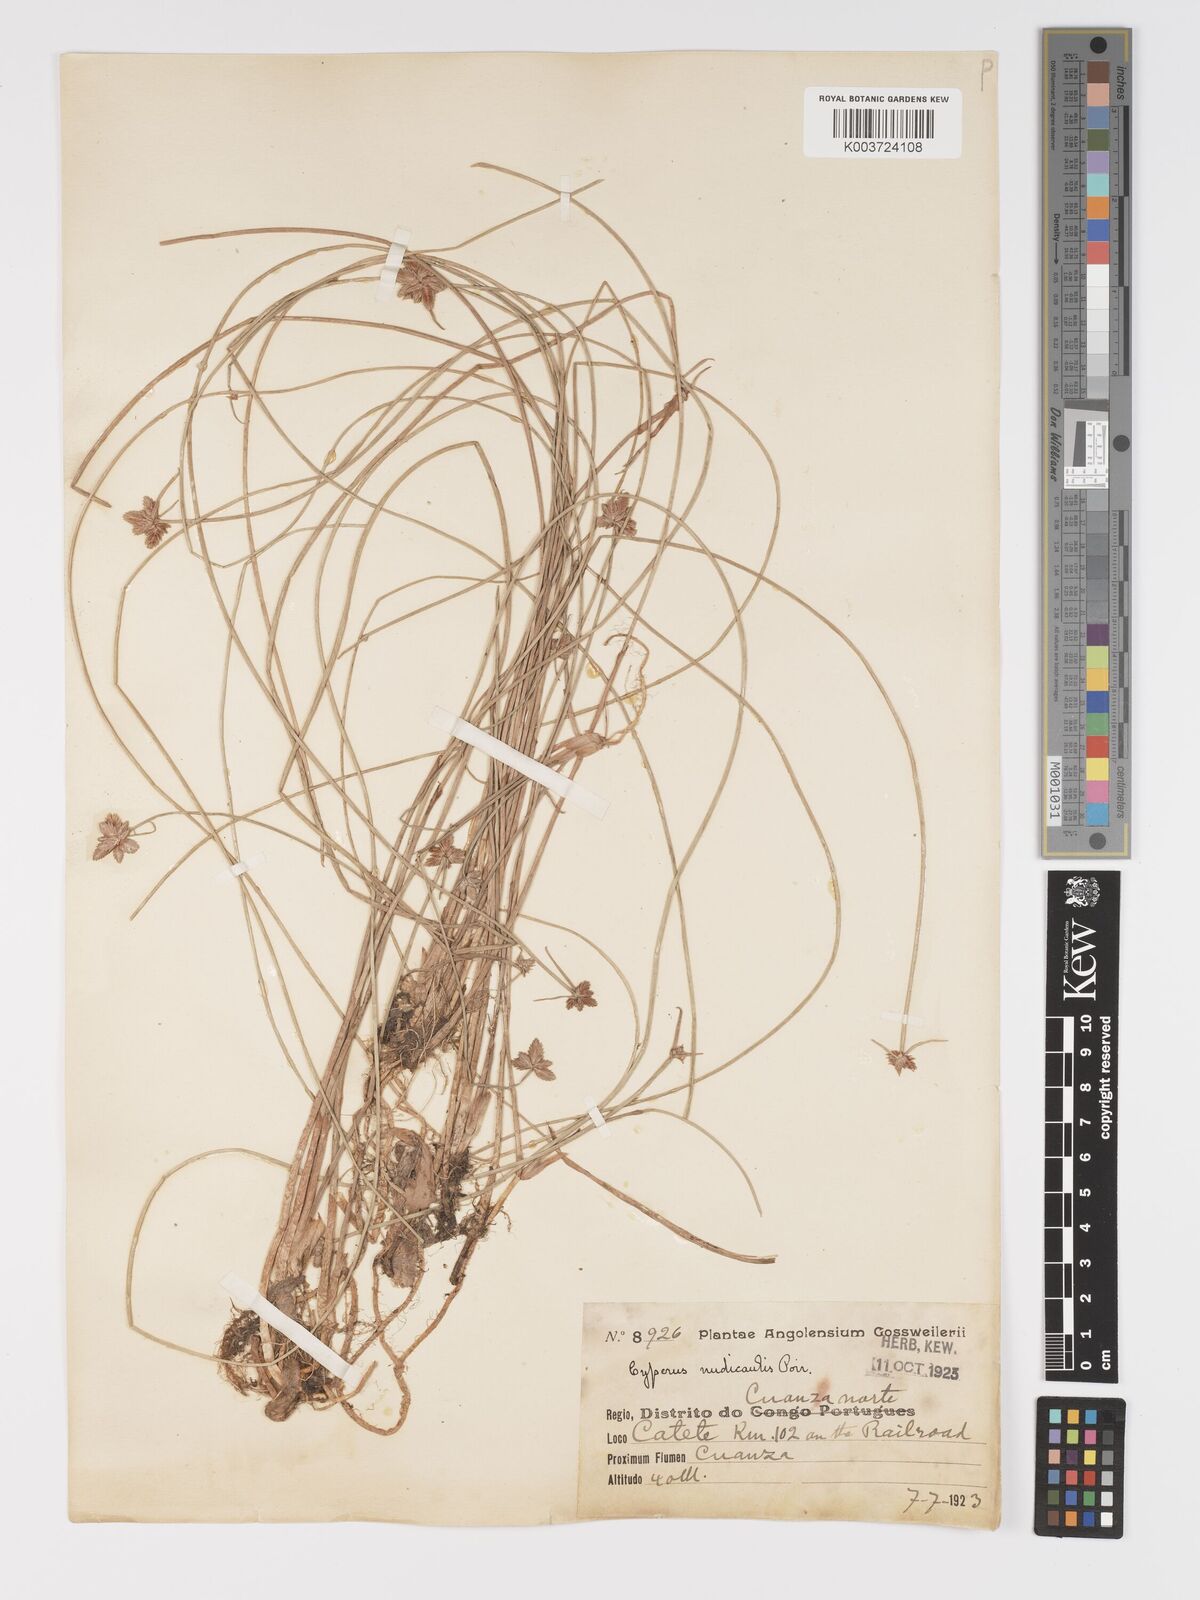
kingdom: Plantae
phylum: Tracheophyta
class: Liliopsida
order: Poales
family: Cyperaceae
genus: Cyperus
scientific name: Cyperus compressus
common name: Poorland flatsedge
